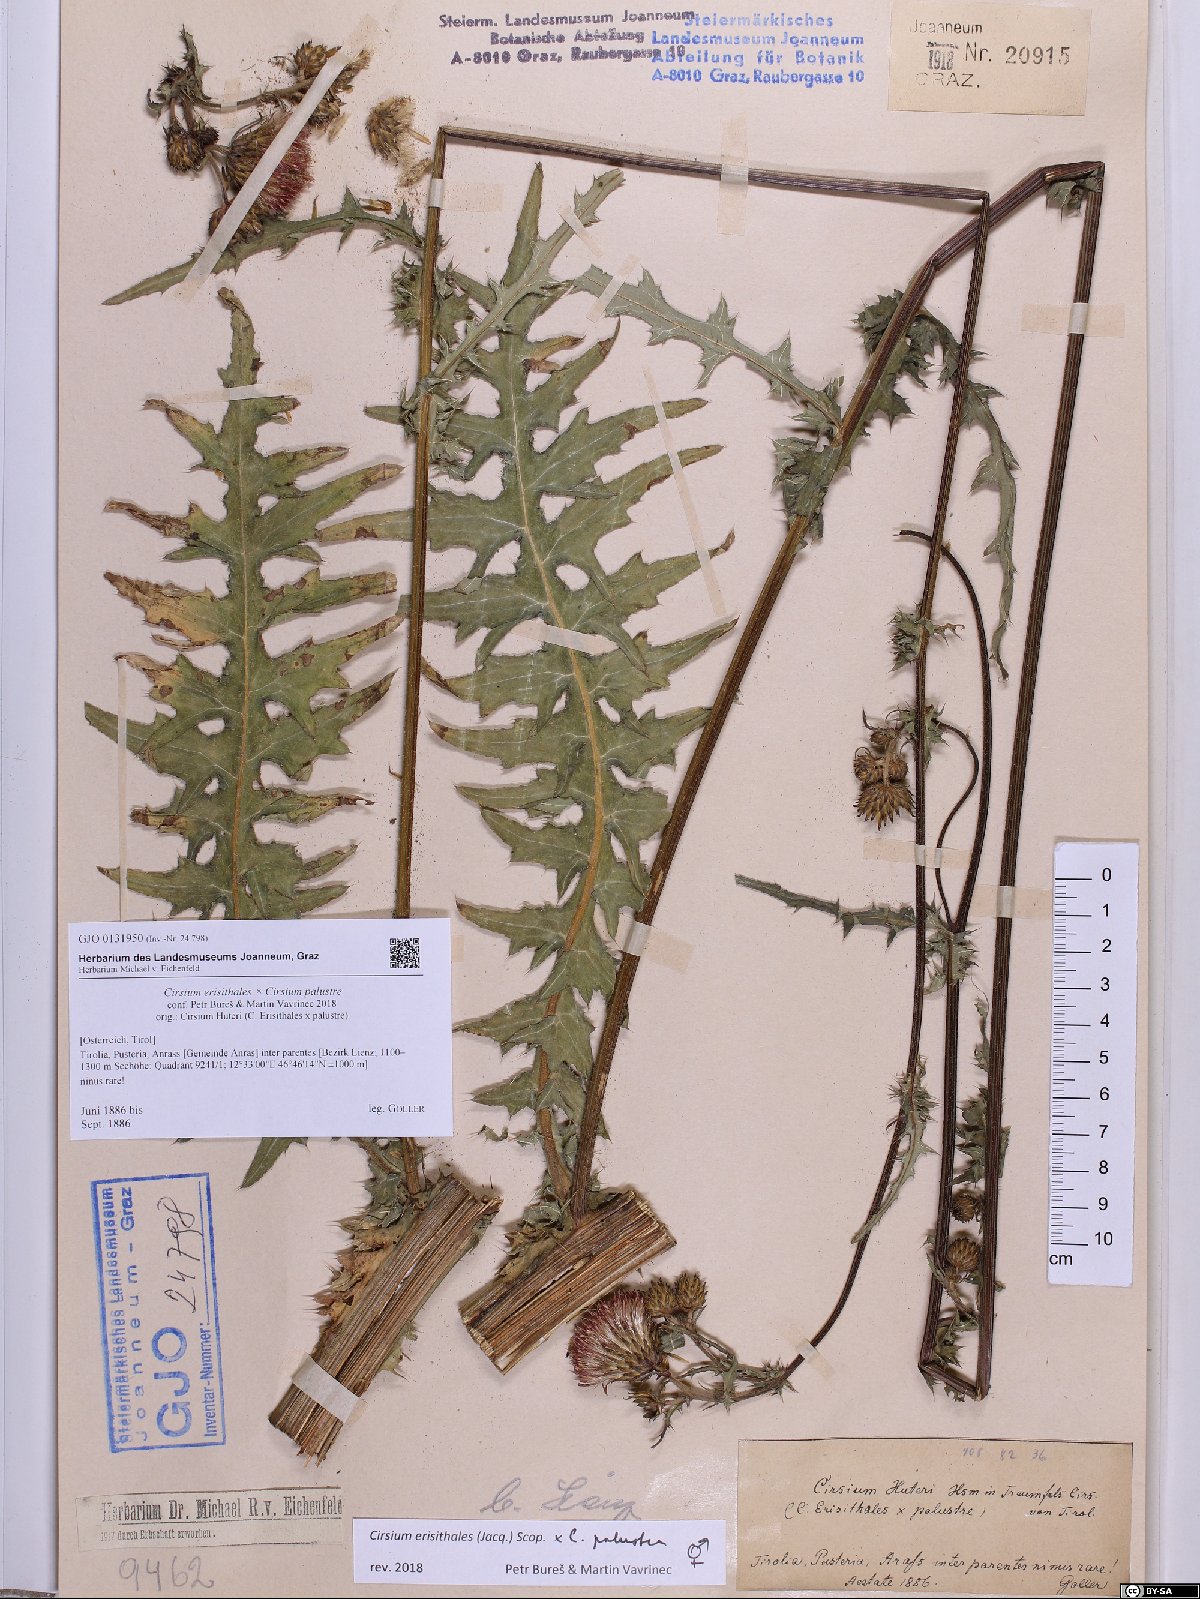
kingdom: Plantae
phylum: Tracheophyta
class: Magnoliopsida
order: Asterales
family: Asteraceae
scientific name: Asteraceae
